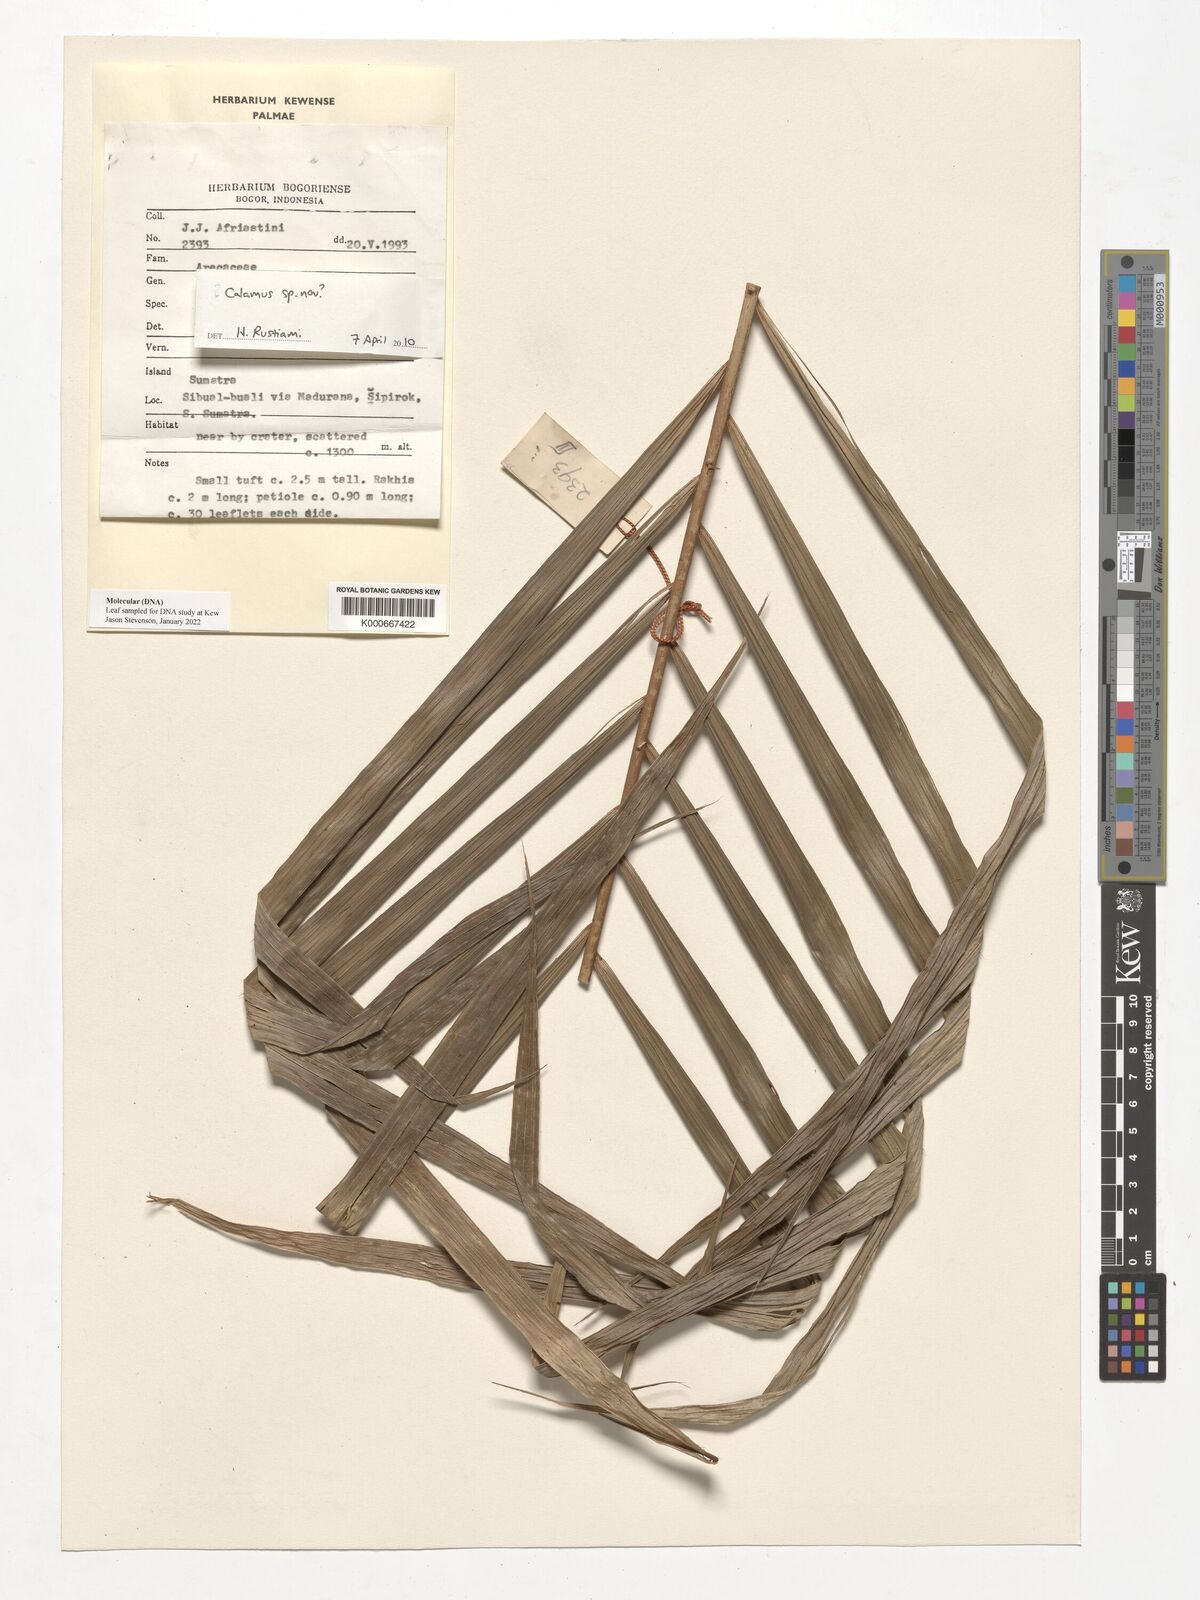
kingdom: Plantae
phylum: Tracheophyta
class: Liliopsida
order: Arecales
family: Arecaceae
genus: Calamus
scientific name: Calamus caurinus
